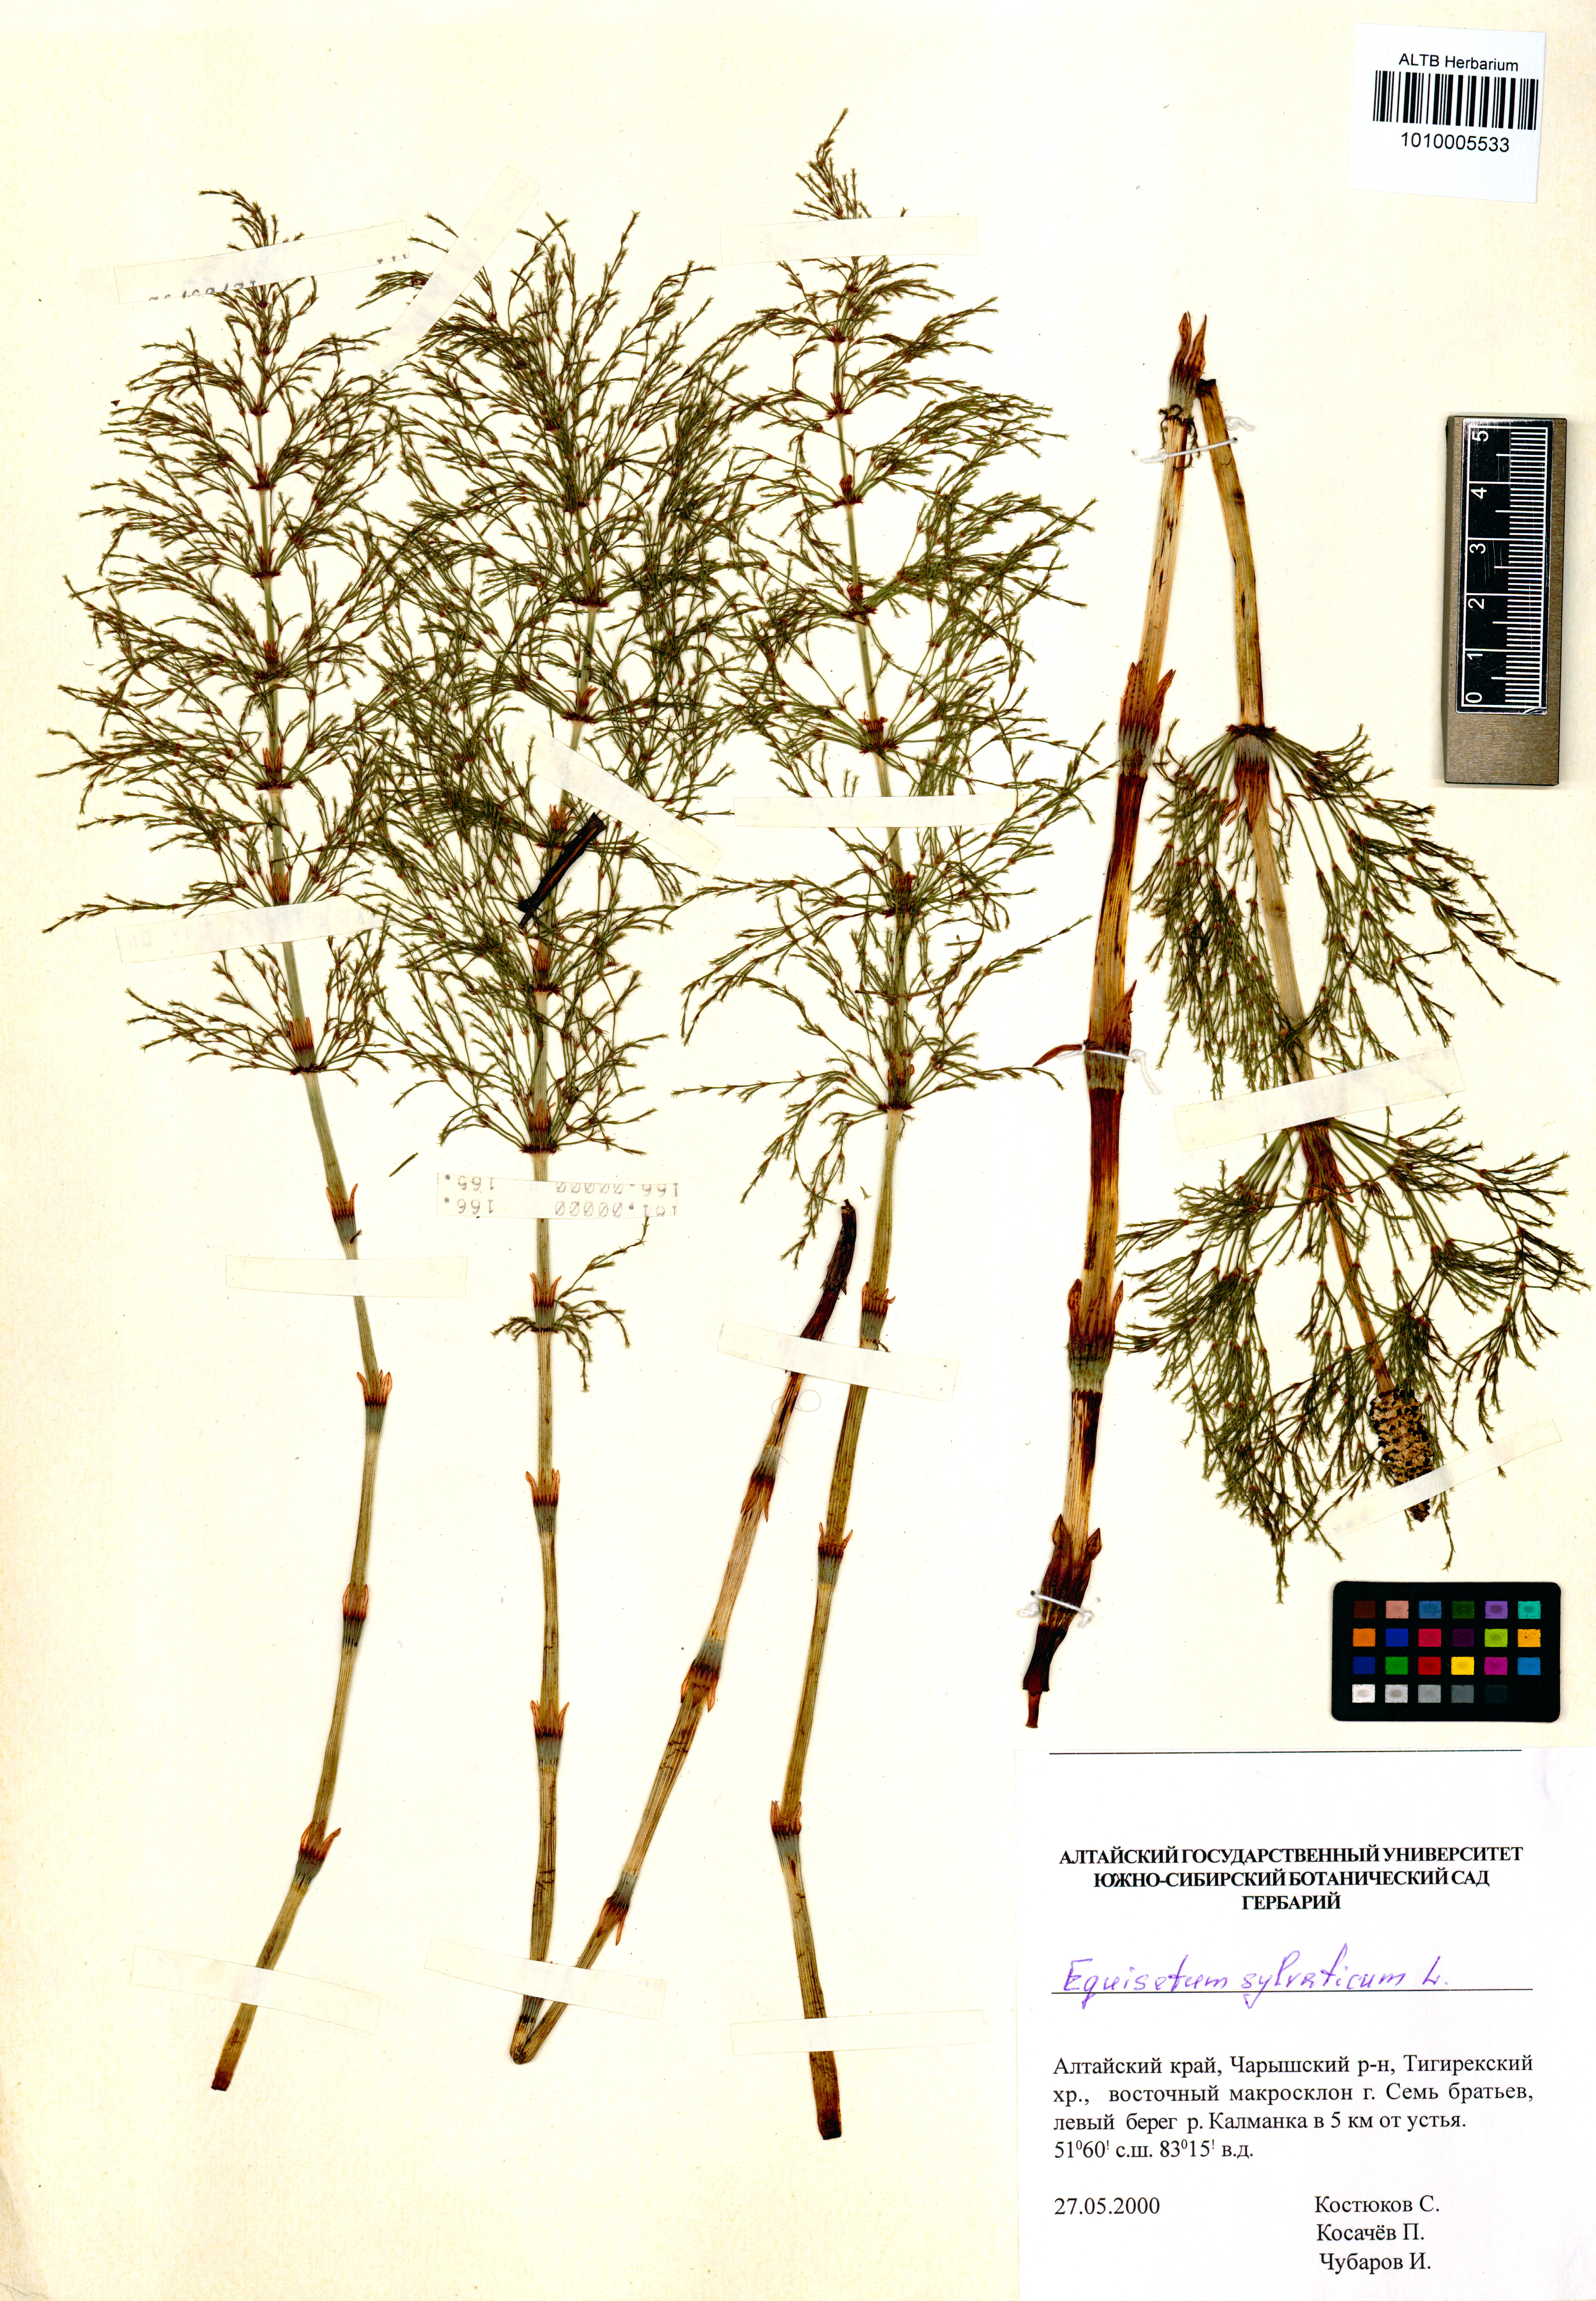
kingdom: Plantae
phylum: Tracheophyta
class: Polypodiopsida
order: Equisetales
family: Equisetaceae
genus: Equisetum
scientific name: Equisetum sylvaticum
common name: Wood horsetail
